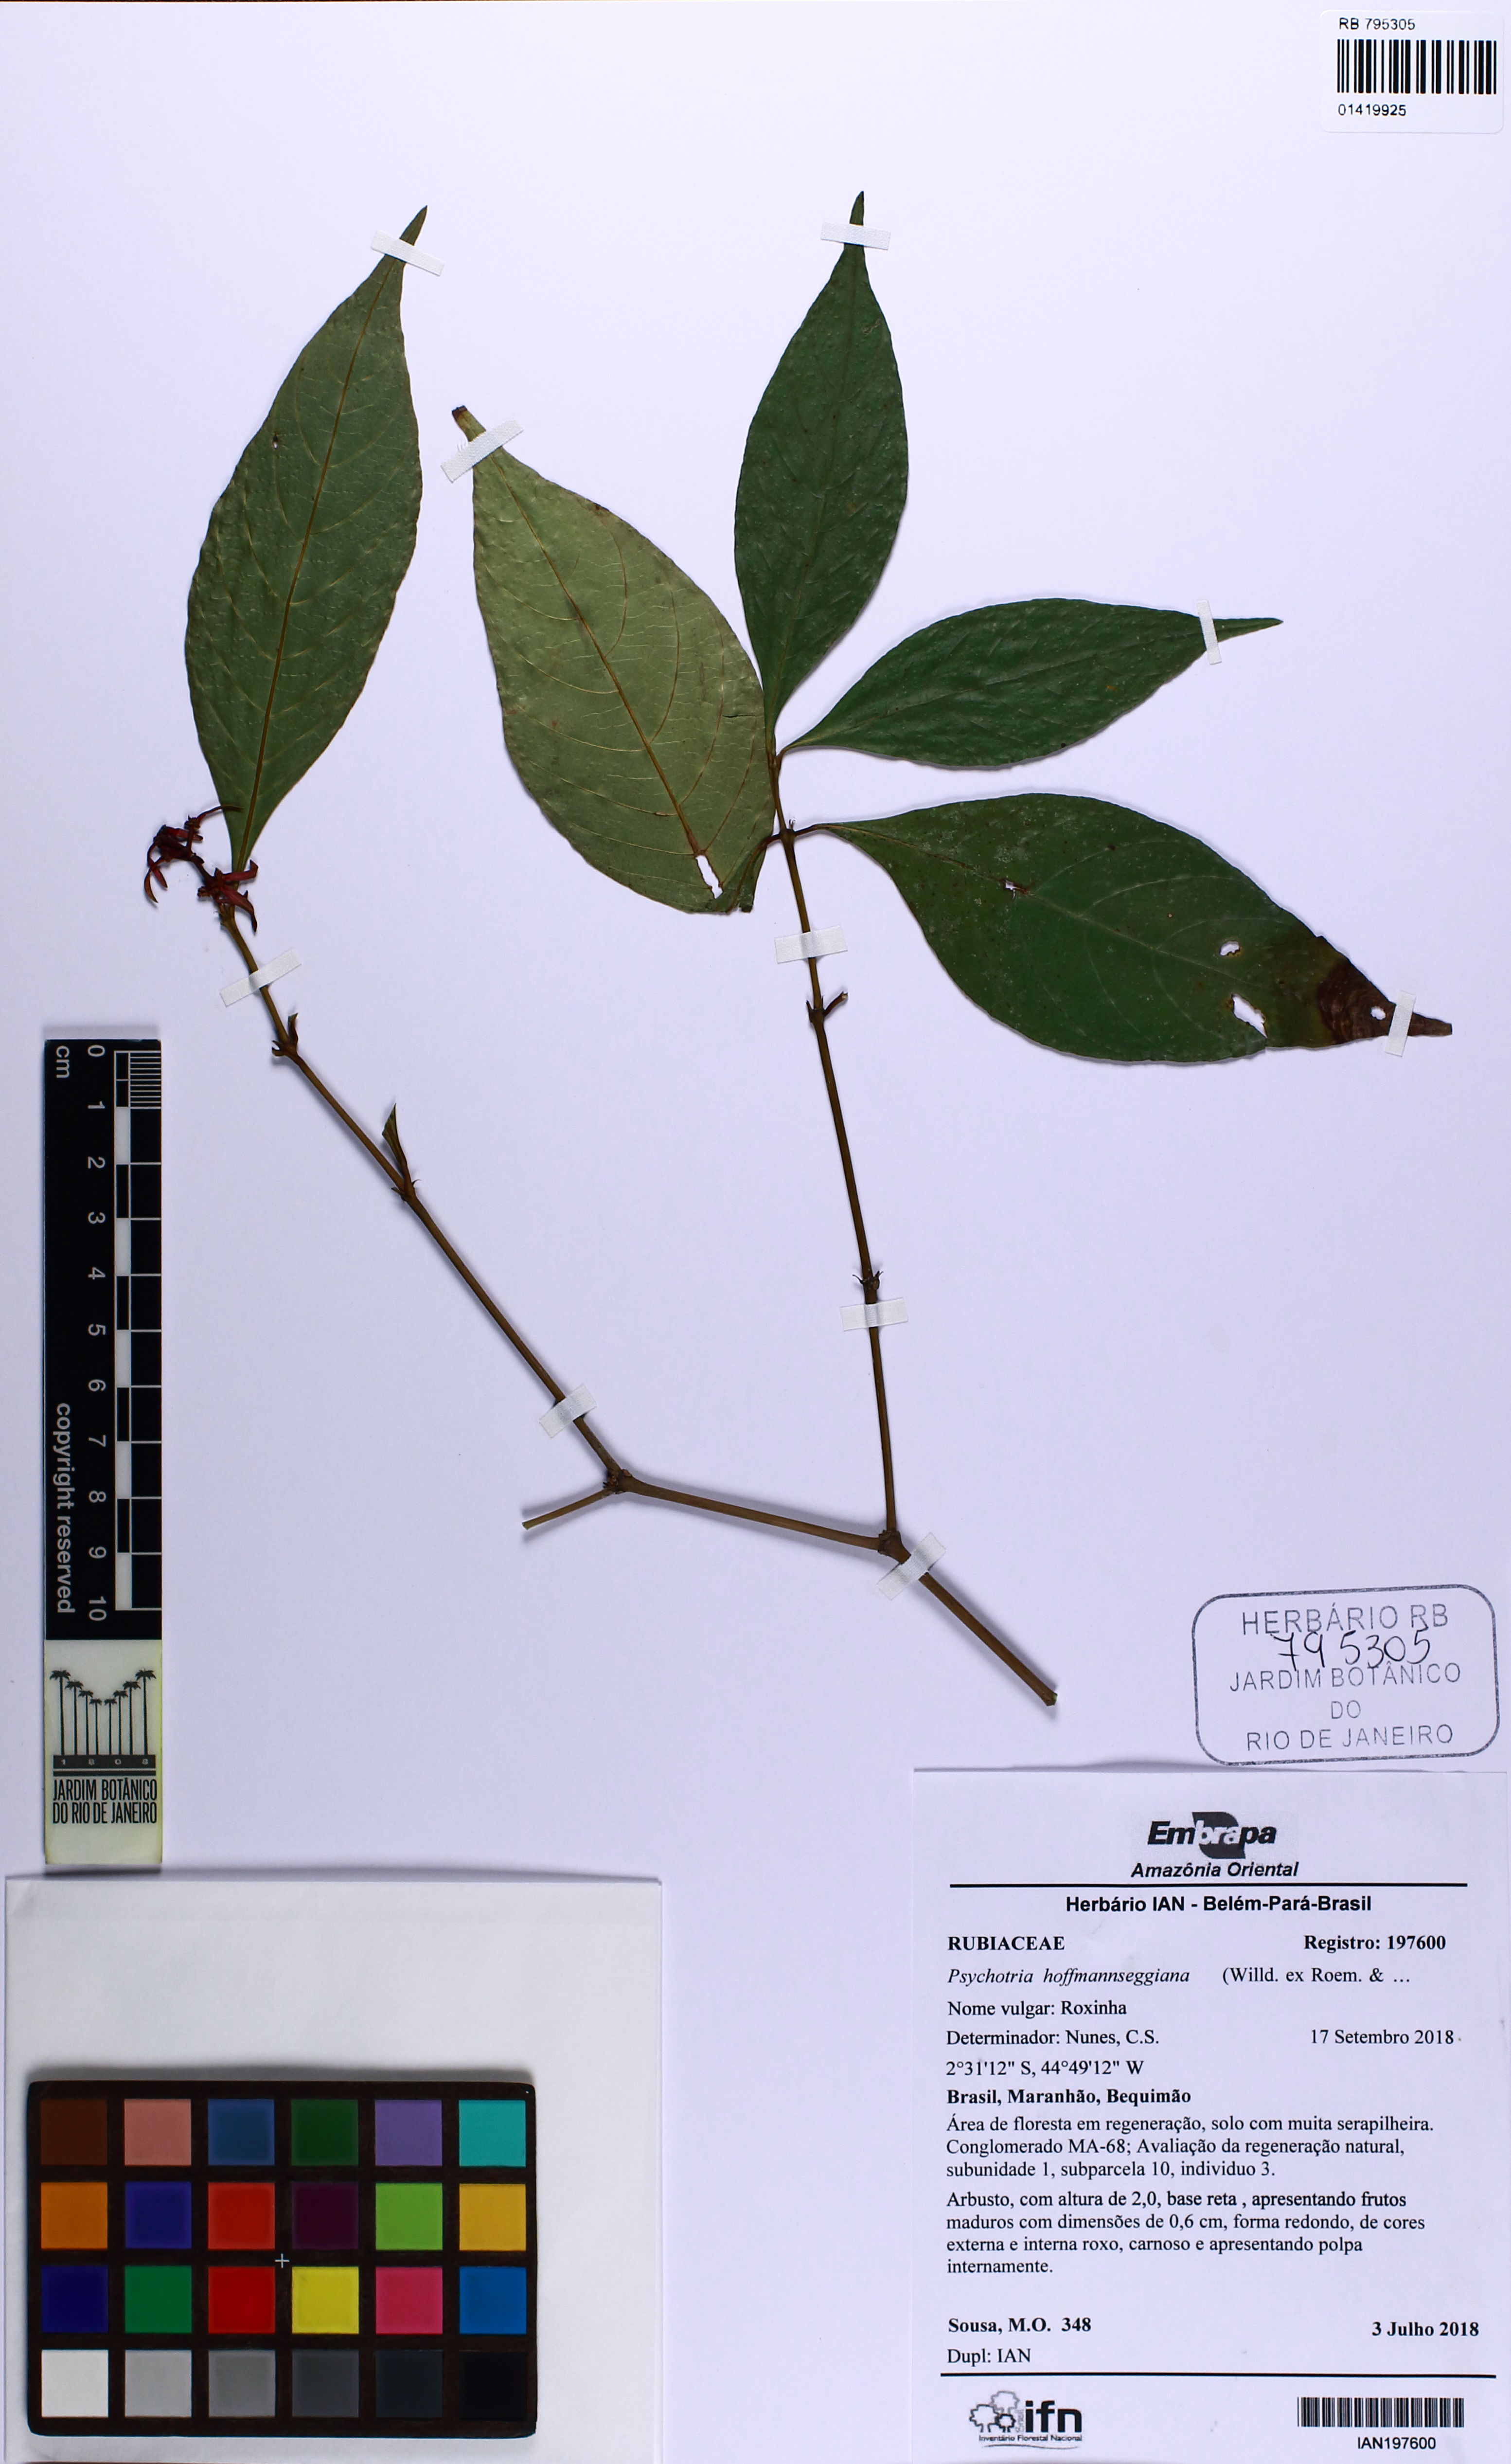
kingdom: Plantae
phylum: Tracheophyta
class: Magnoliopsida
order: Gentianales
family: Rubiaceae
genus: Palicourea
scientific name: Palicourea hoffmannseggiana
